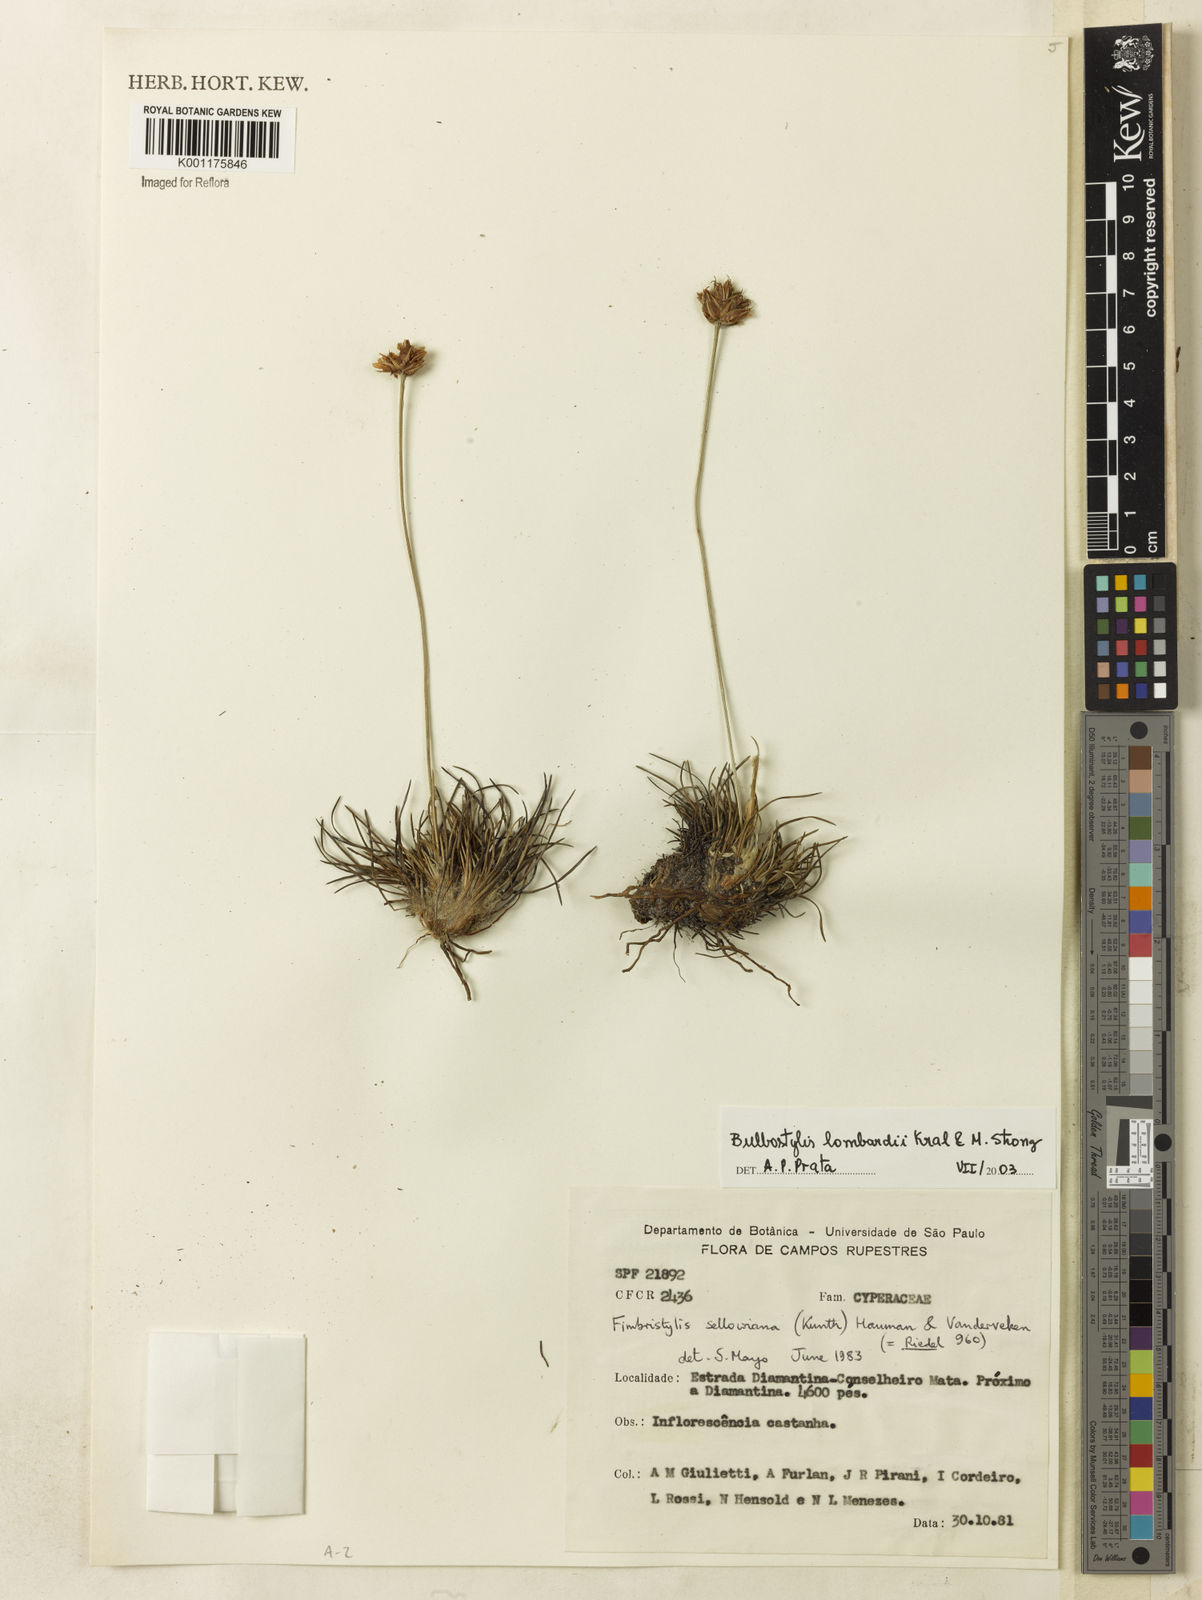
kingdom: Plantae
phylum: Tracheophyta
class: Liliopsida
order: Poales
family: Cyperaceae
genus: Bulbostylis
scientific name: Bulbostylis lombardii
